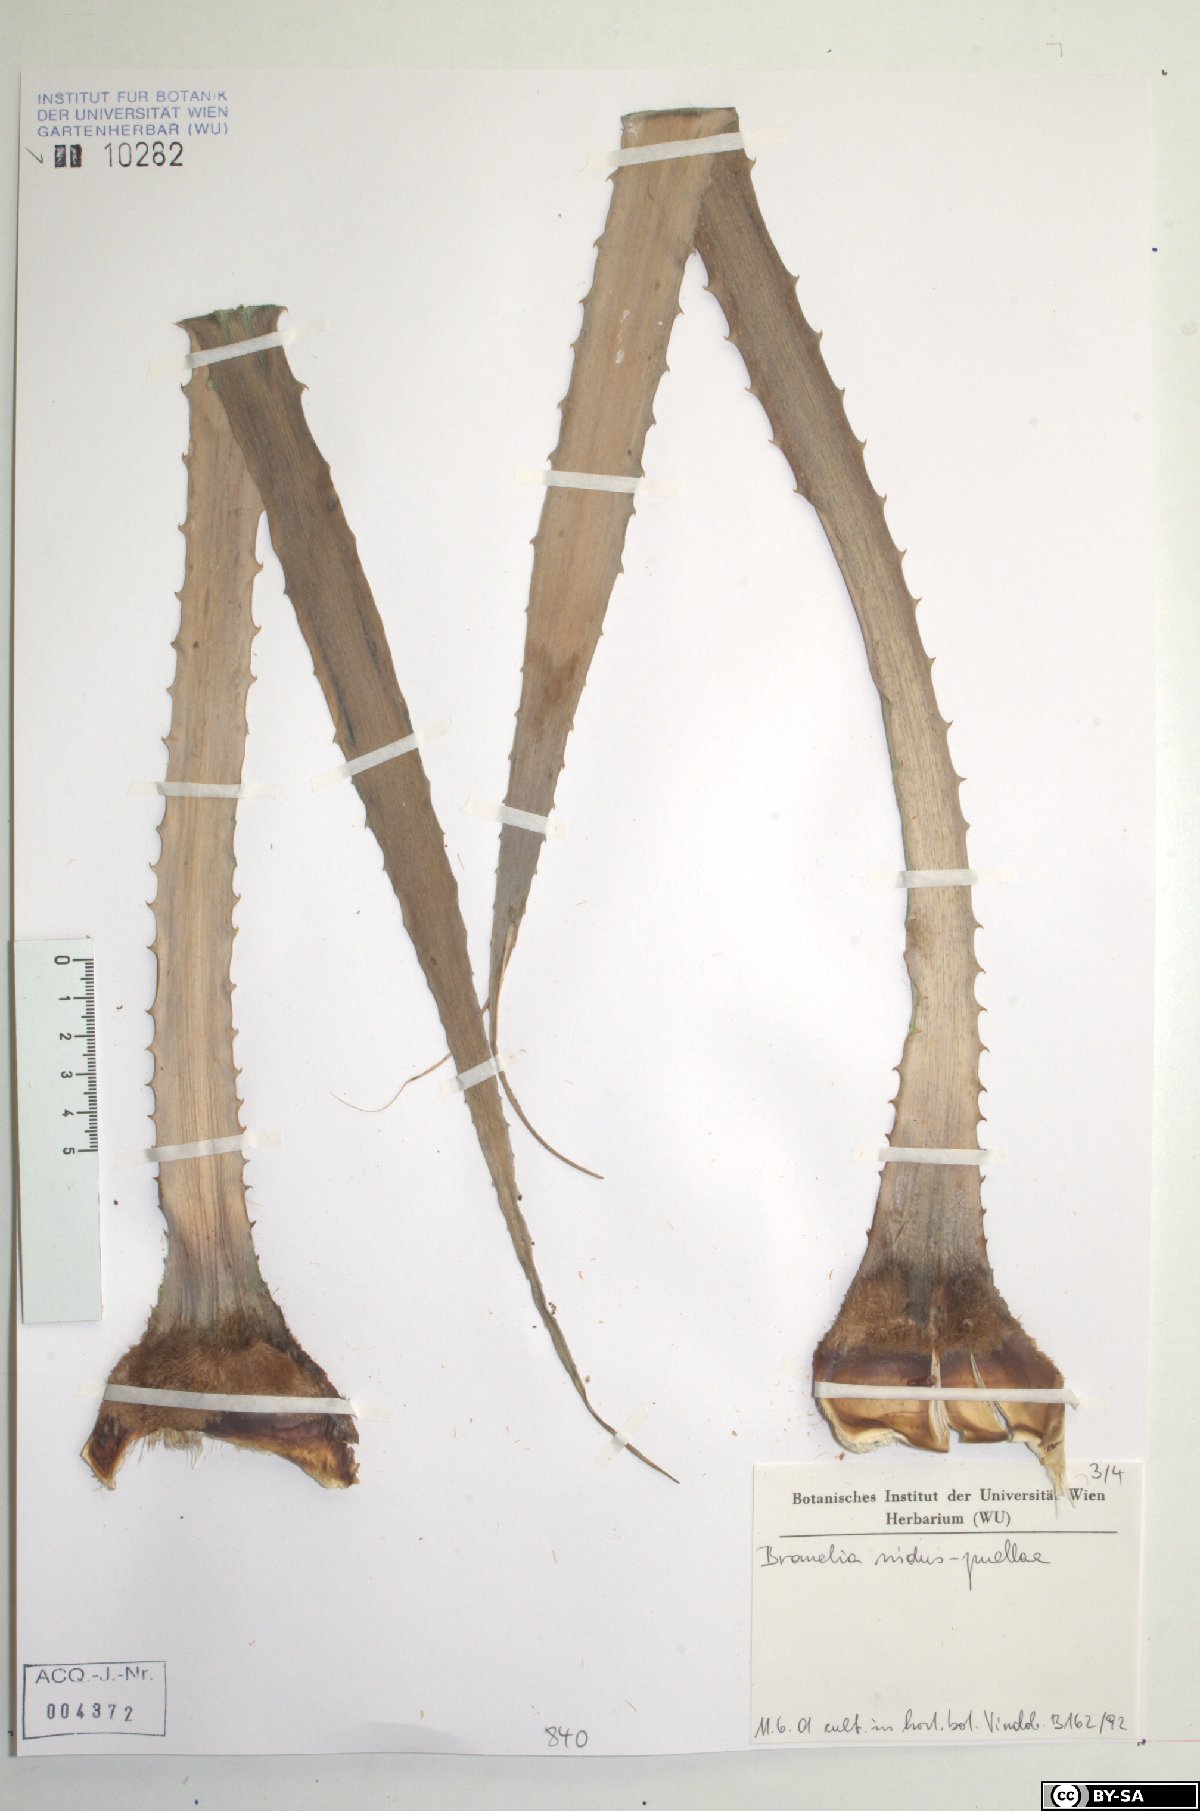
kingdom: Plantae
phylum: Tracheophyta
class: Liliopsida
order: Poales
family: Bromeliaceae
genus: Bromelia
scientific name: Bromelia nidus-puellae
